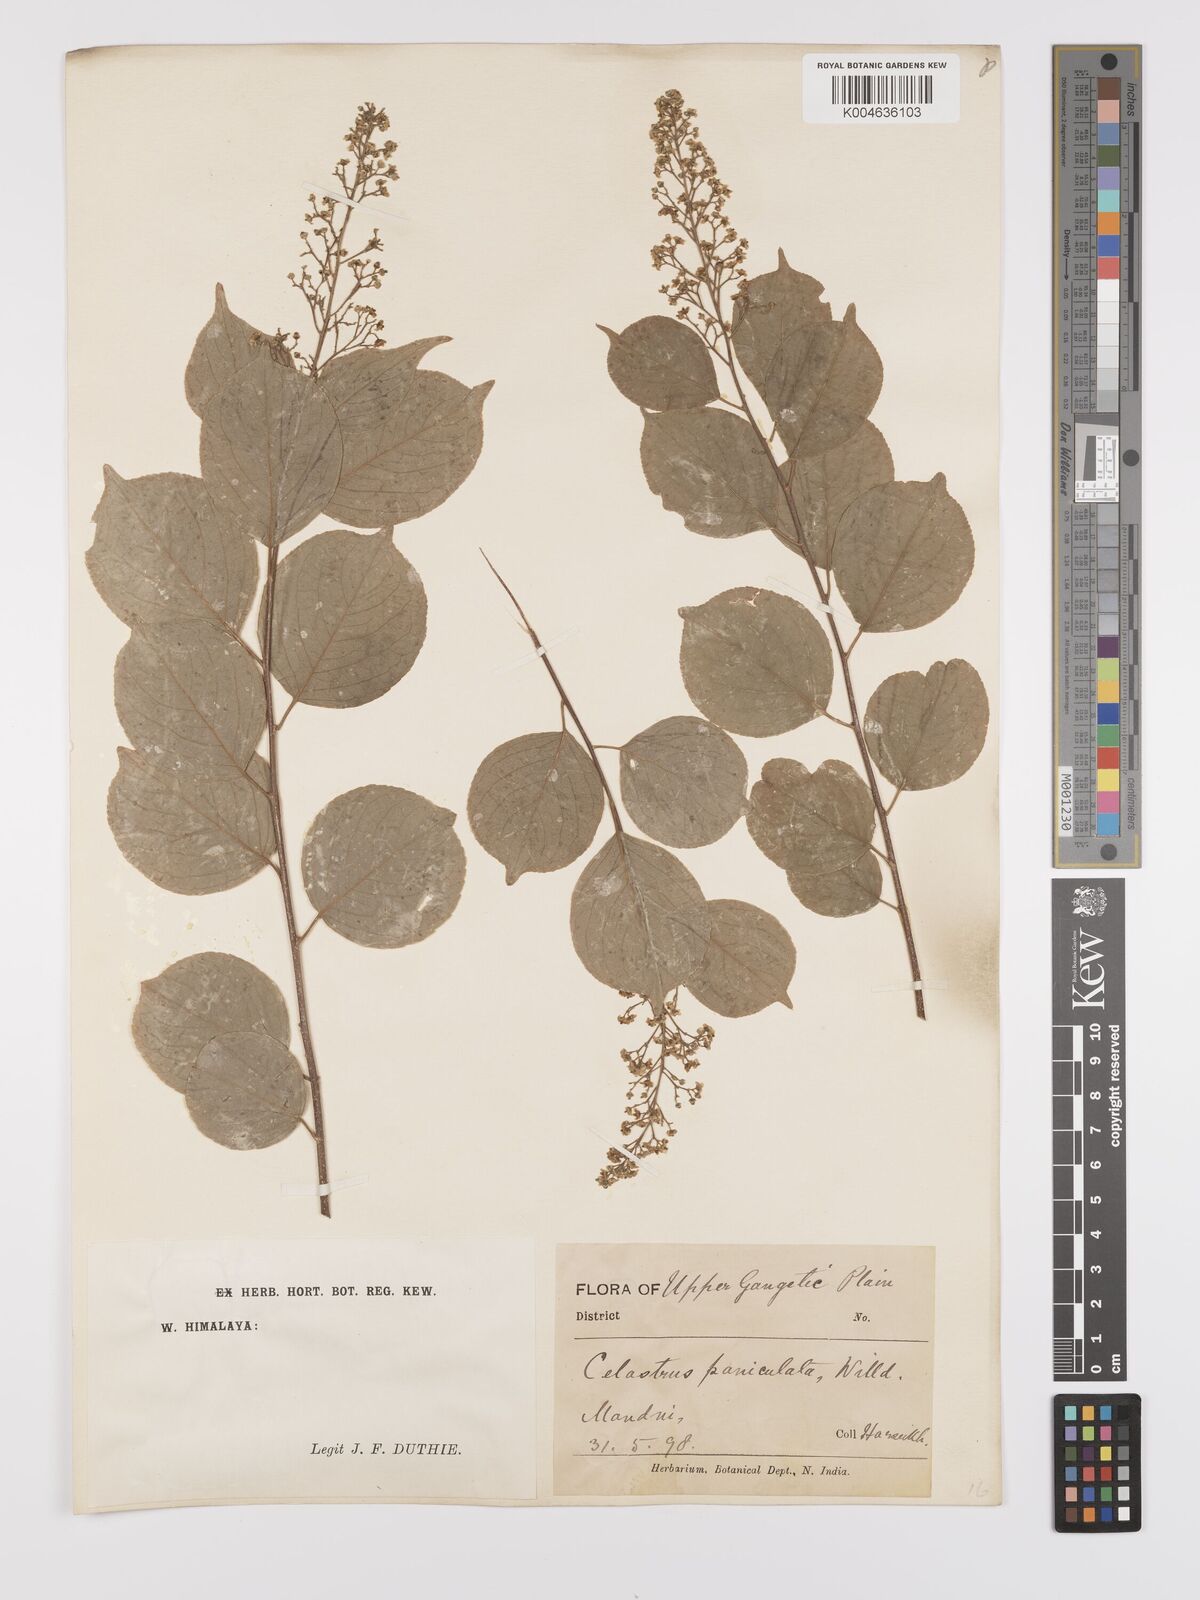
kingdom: Plantae
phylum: Tracheophyta
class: Magnoliopsida
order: Celastrales
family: Celastraceae
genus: Celastrus
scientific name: Celastrus paniculatus
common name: Oriental bittersweet; staff vine
